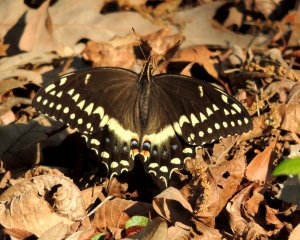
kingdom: Animalia
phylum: Arthropoda
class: Insecta
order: Lepidoptera
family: Papilionidae
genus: Pterourus
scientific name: Pterourus palamedes
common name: Palamedes Swallowtail
